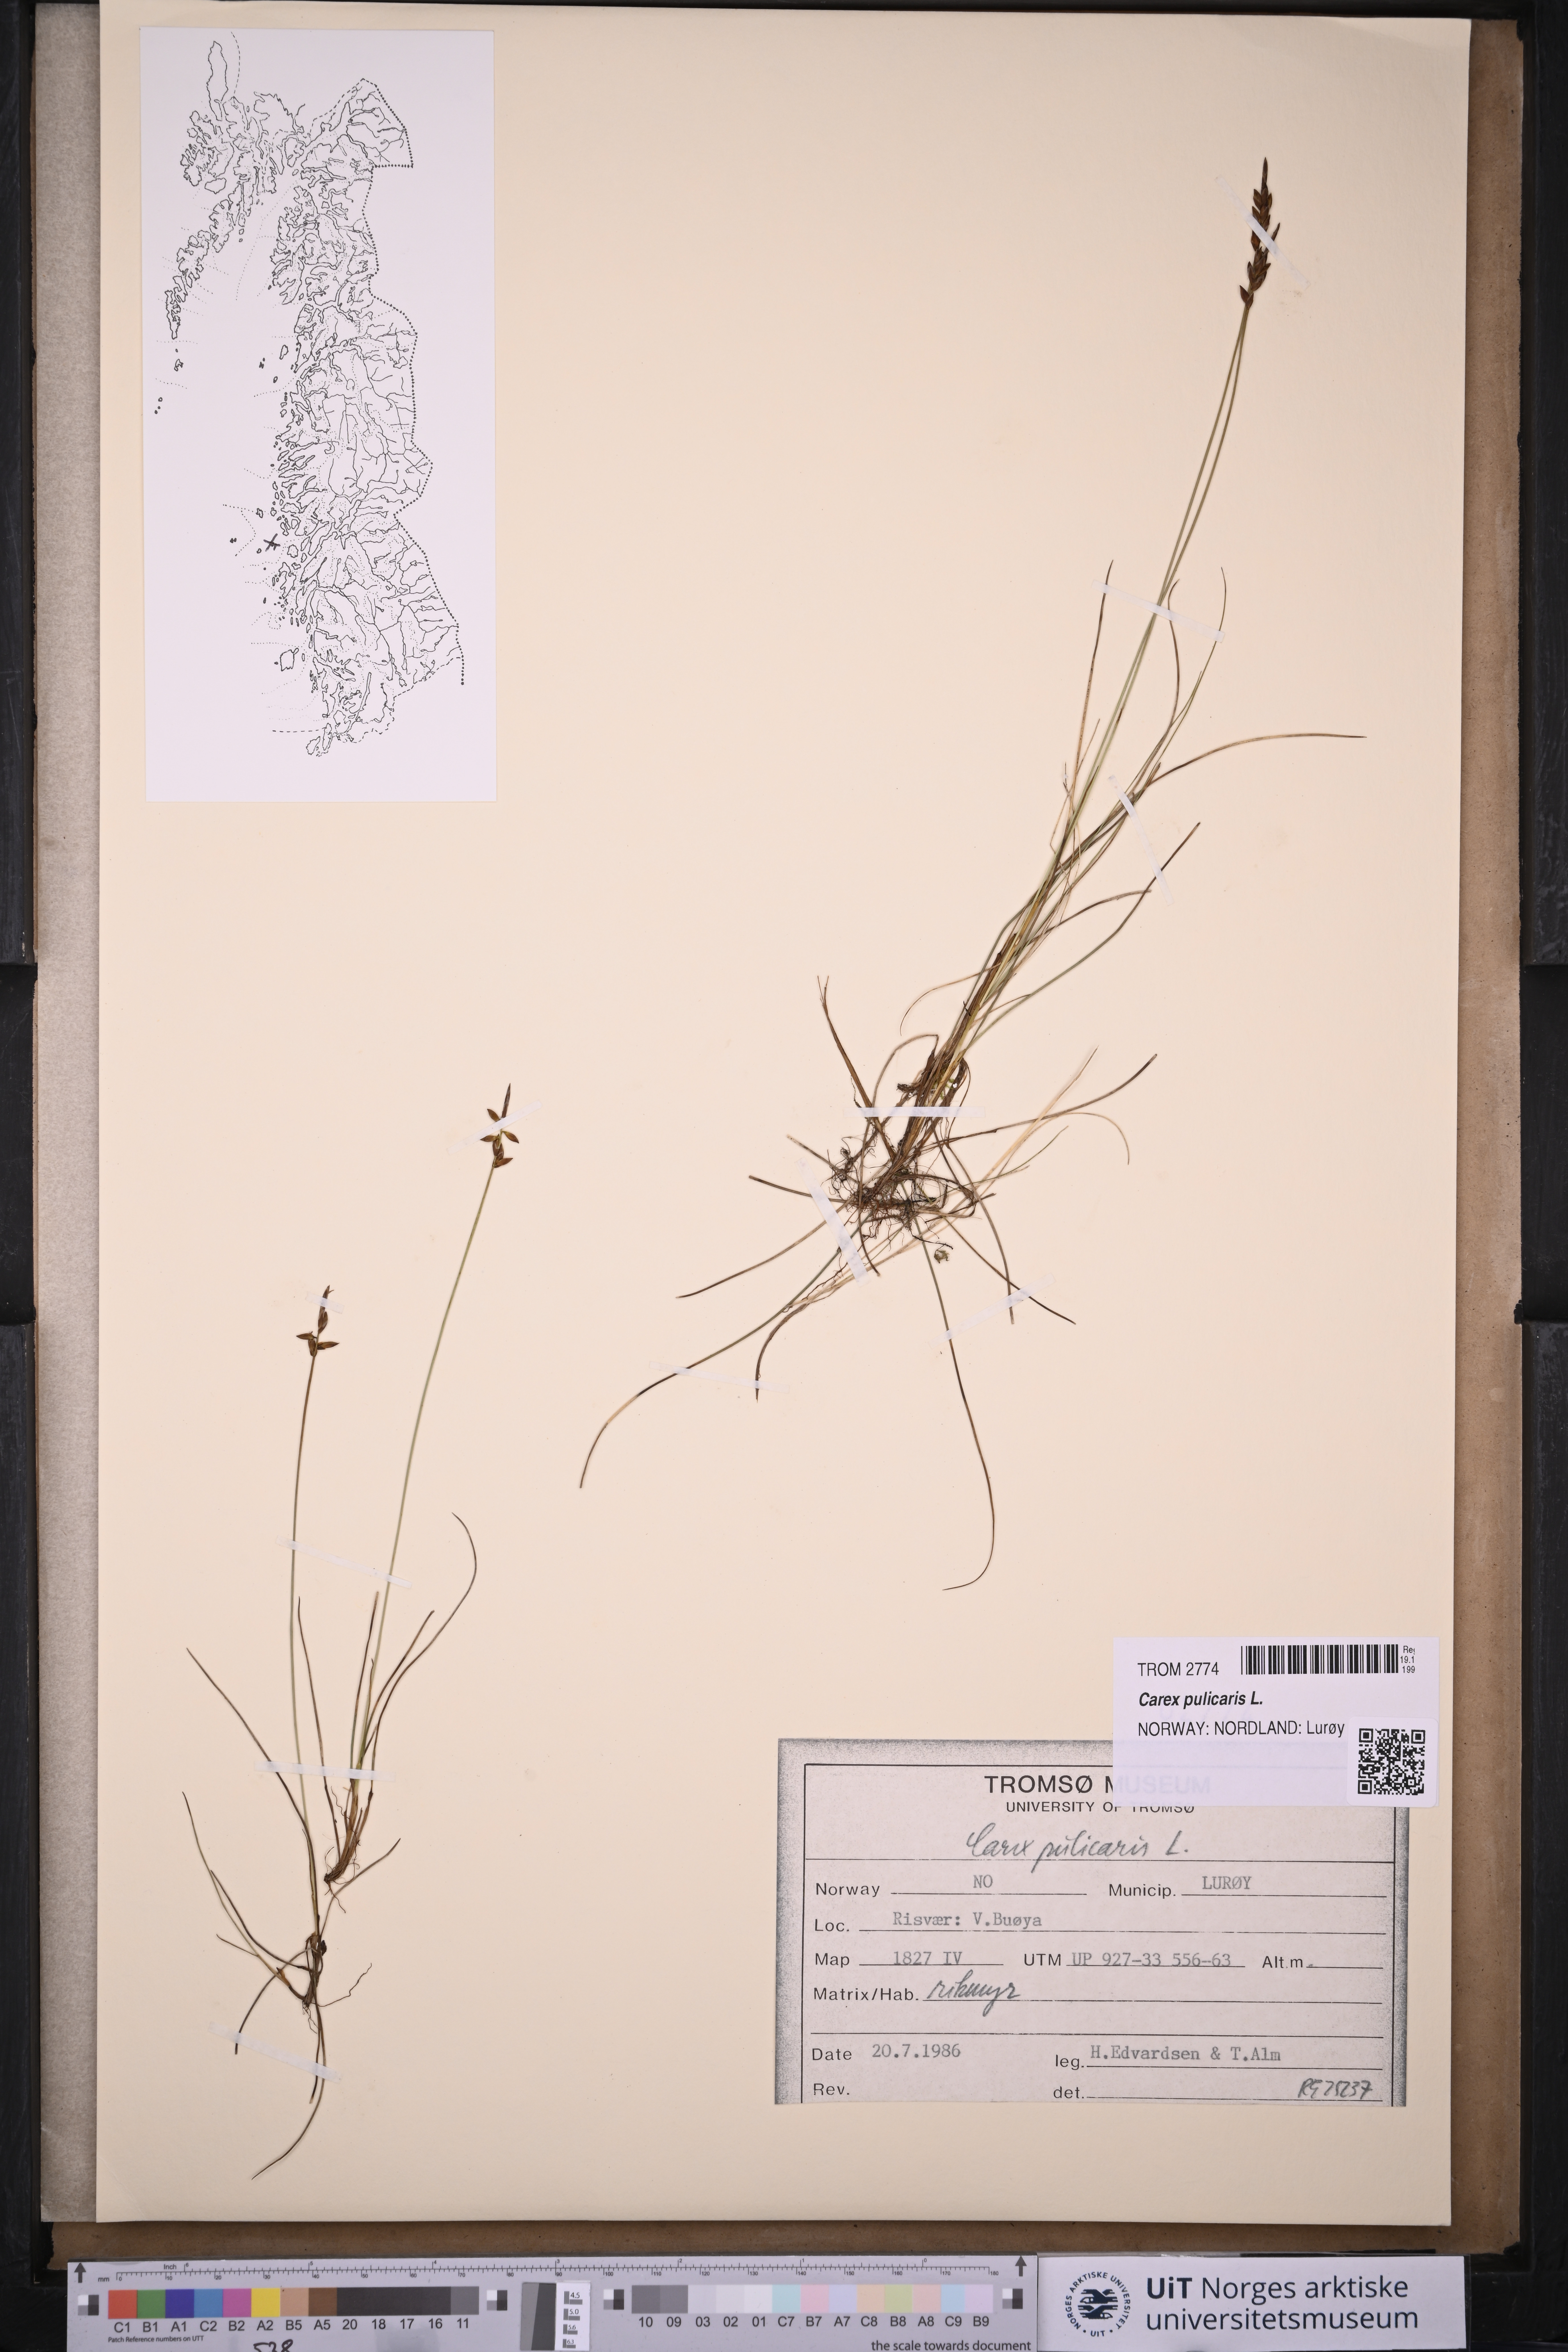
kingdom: Plantae
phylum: Tracheophyta
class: Liliopsida
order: Poales
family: Cyperaceae
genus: Carex
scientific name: Carex pulicaris
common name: Flea sedge
